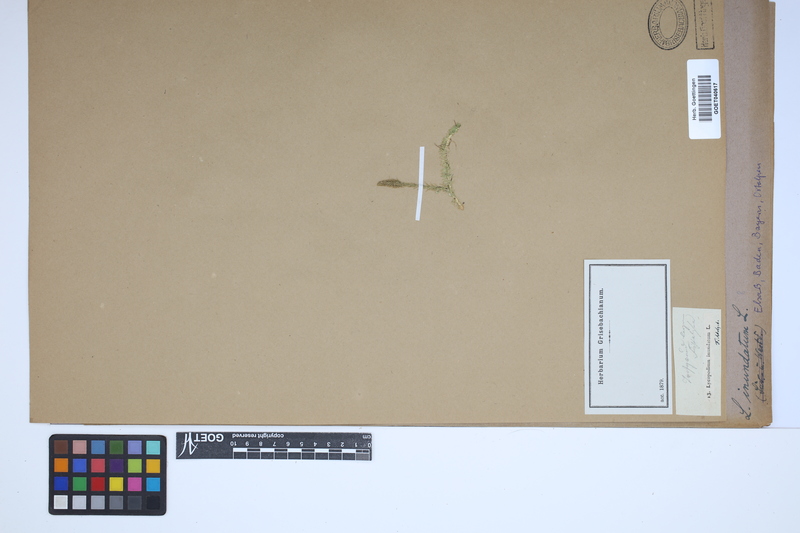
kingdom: Plantae
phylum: Tracheophyta
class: Lycopodiopsida
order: Lycopodiales
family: Lycopodiaceae
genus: Lycopodiella
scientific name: Lycopodiella inundata
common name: Marsh clubmoss
